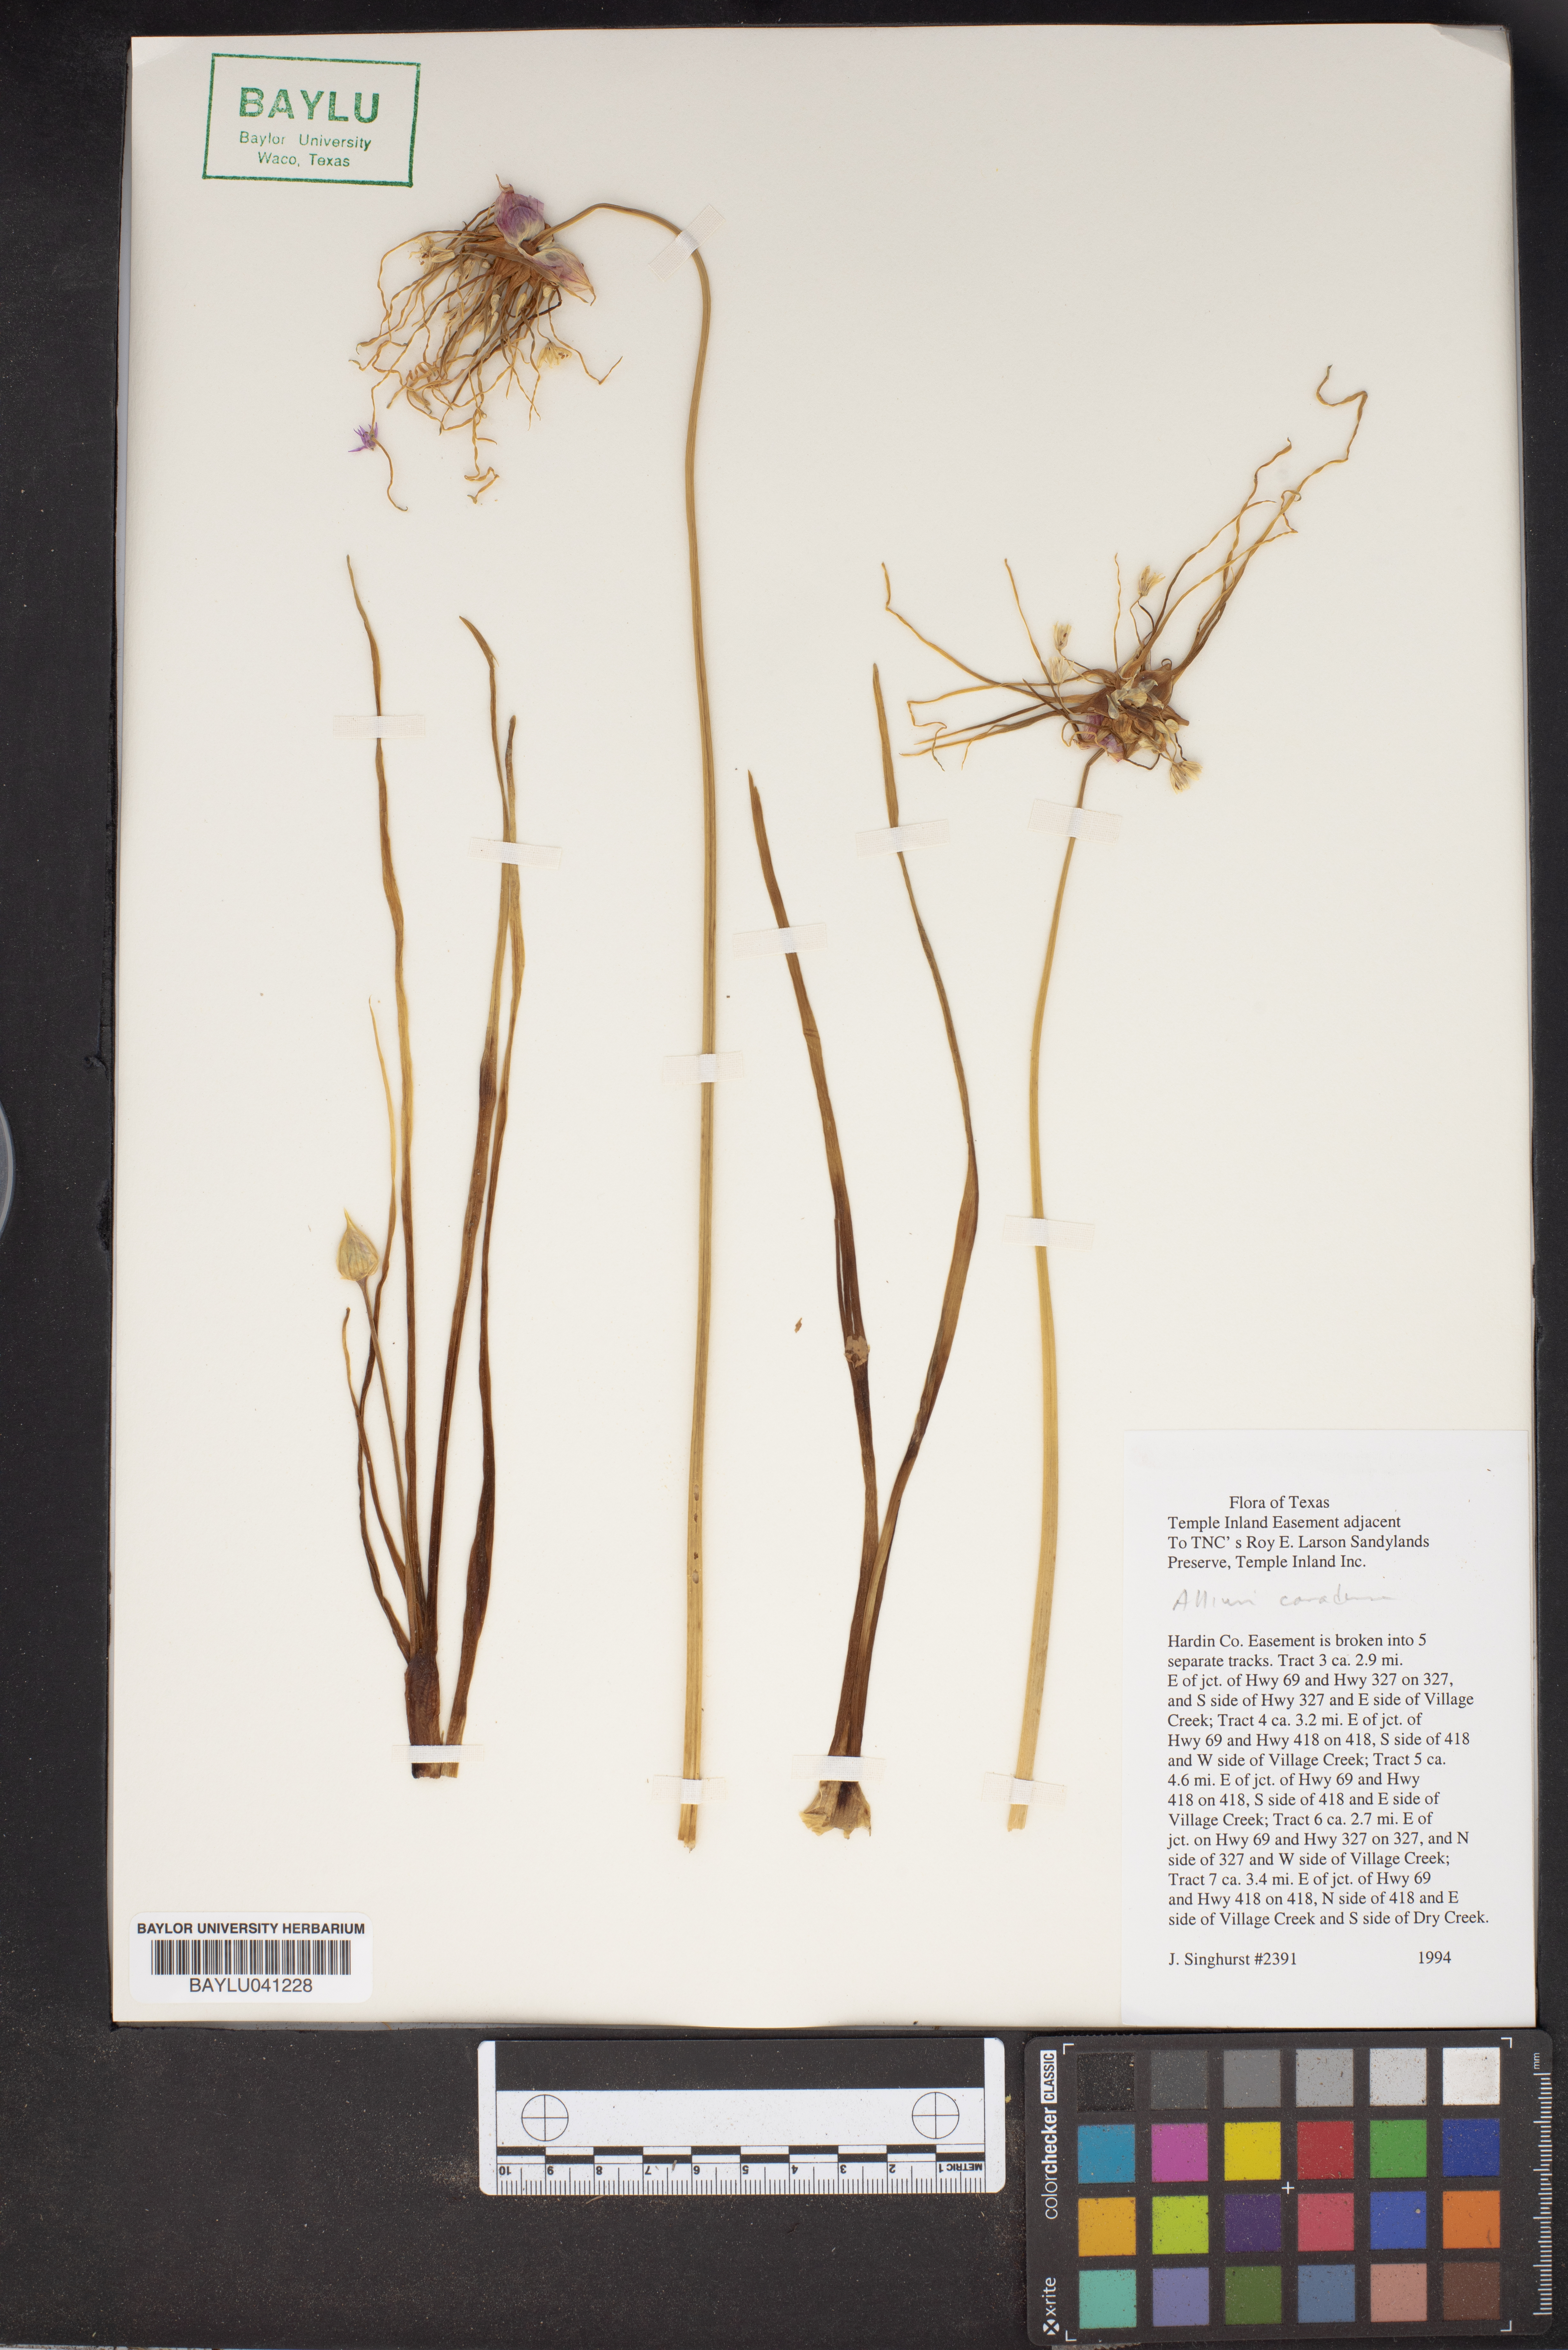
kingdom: Plantae
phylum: Tracheophyta
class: Liliopsida
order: Asparagales
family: Amaryllidaceae
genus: Allium
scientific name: Allium cardiostemon
